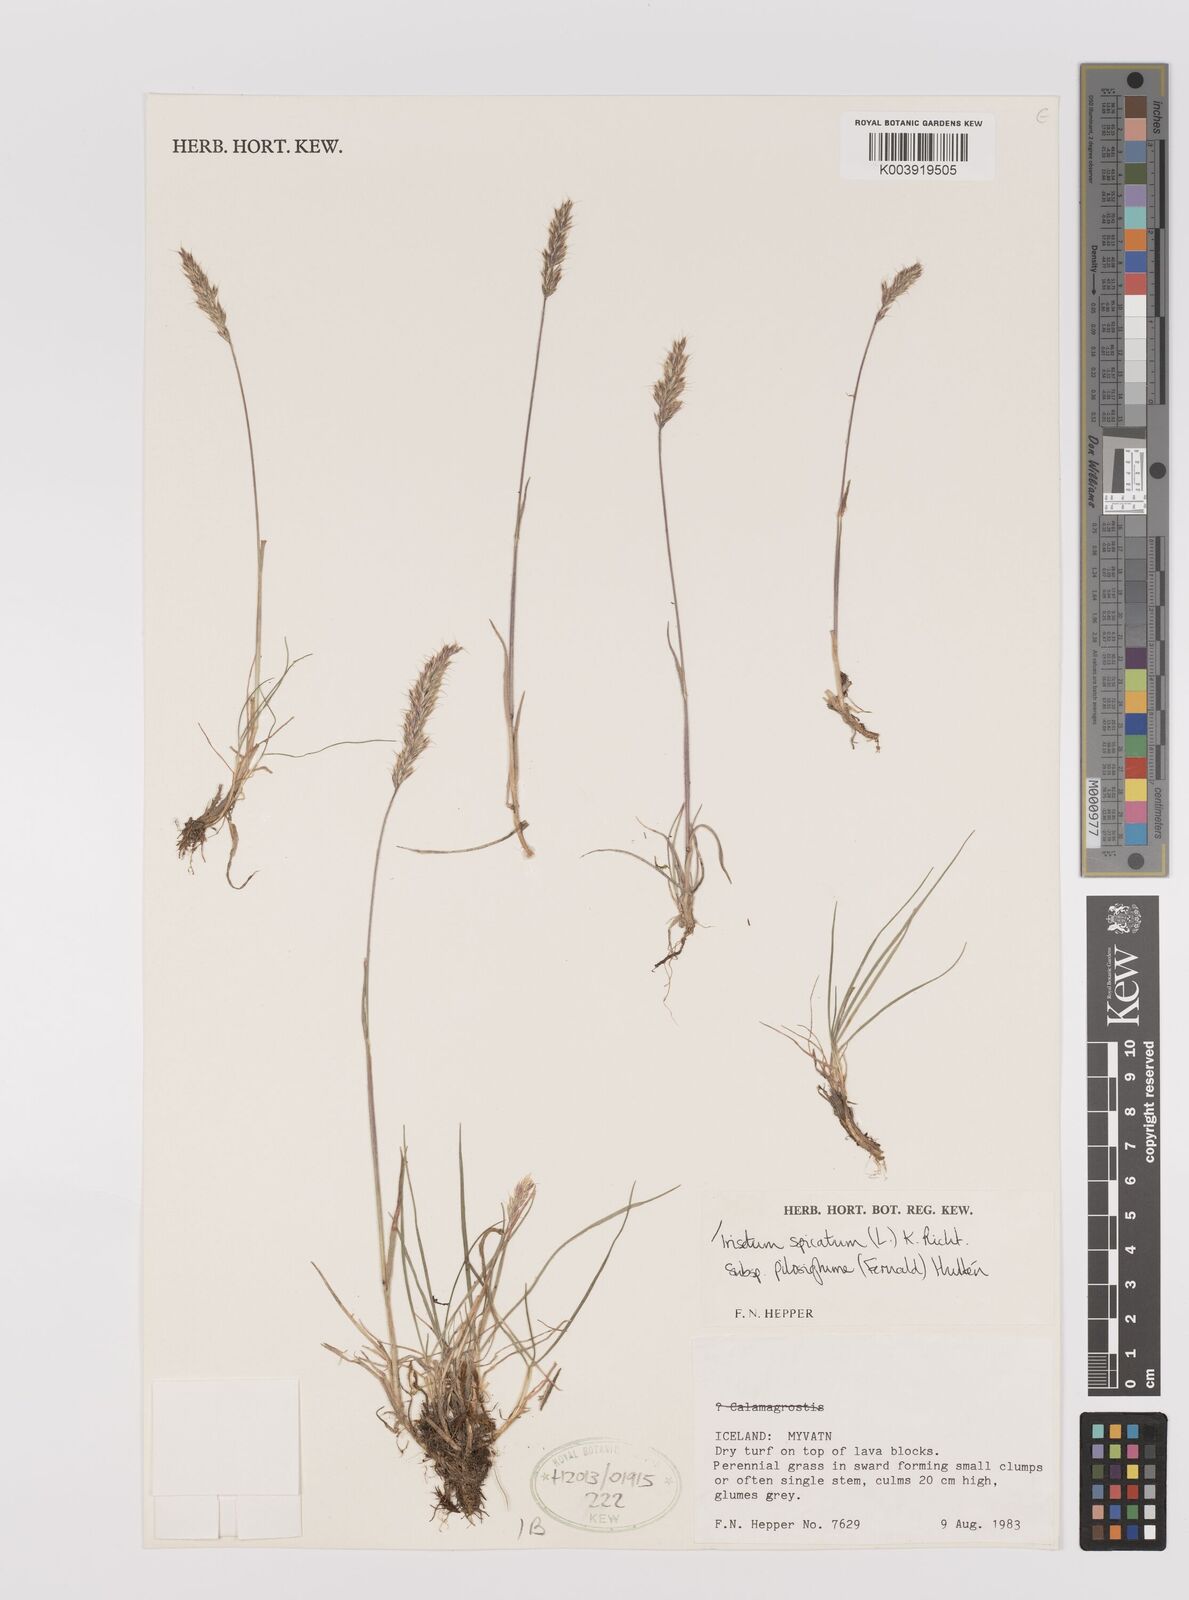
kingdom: Plantae
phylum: Tracheophyta
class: Liliopsida
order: Poales
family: Poaceae
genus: Koeleria
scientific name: Koeleria spicata
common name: Mountain trisetum
